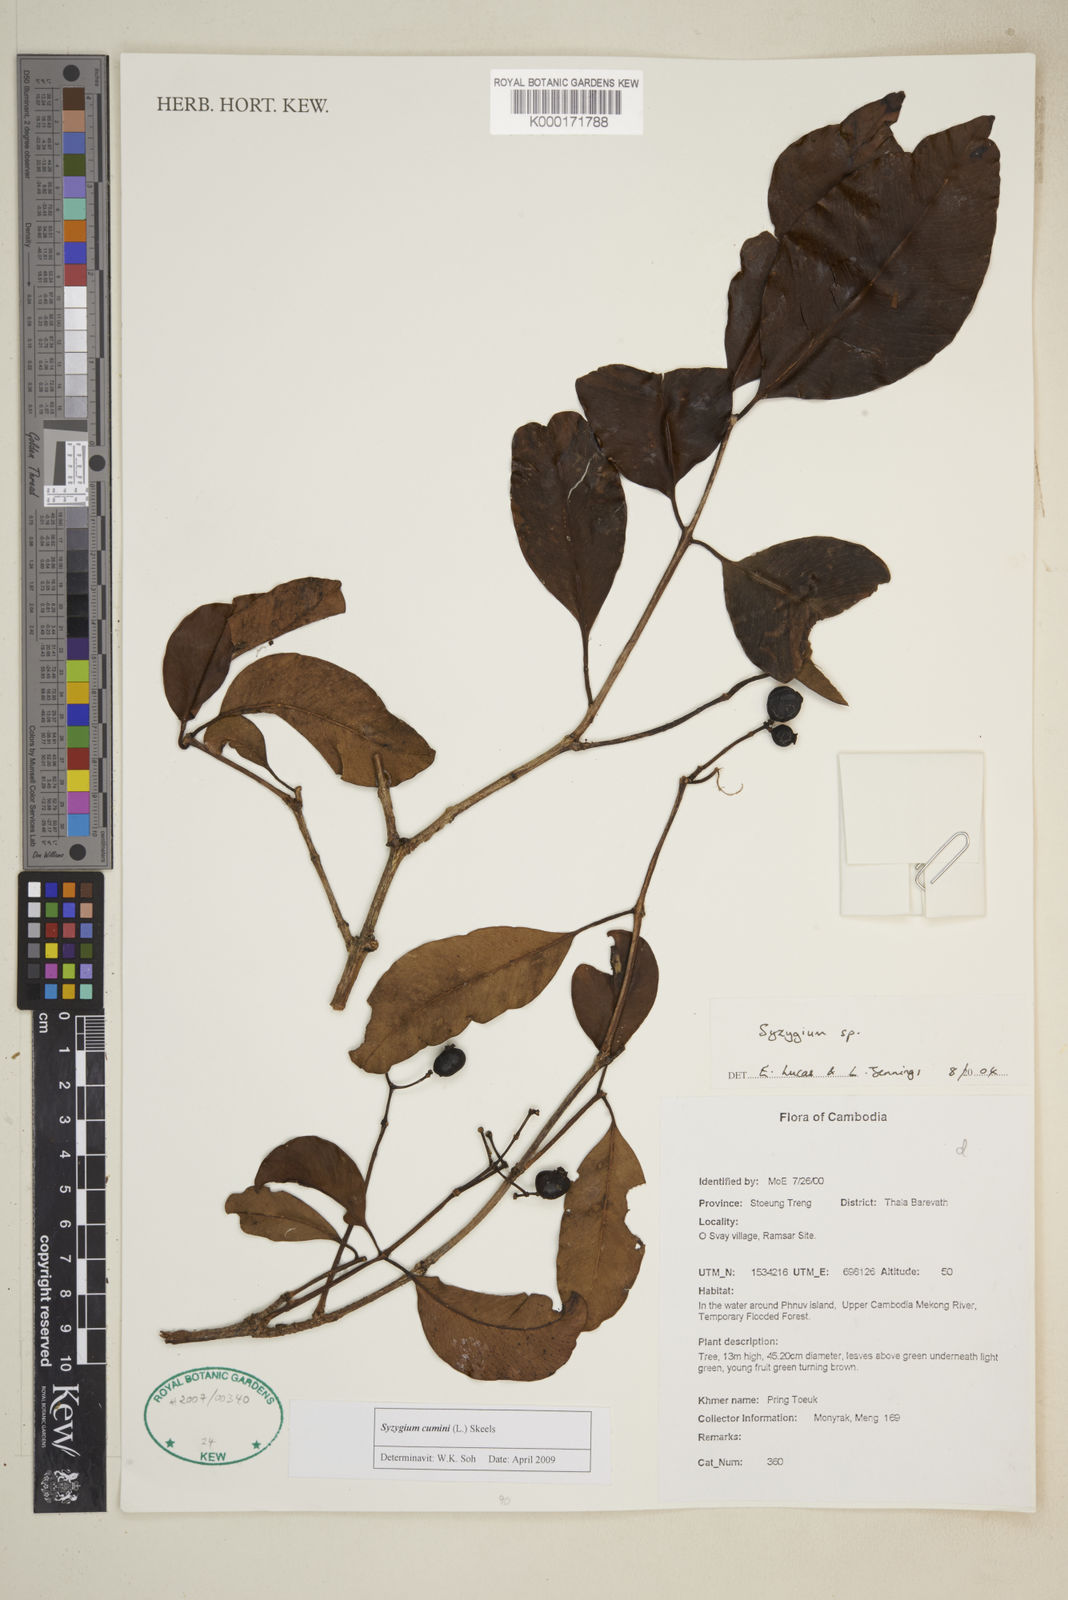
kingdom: Plantae
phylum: Tracheophyta
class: Magnoliopsida
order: Myrtales
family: Myrtaceae
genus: Syzygium
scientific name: Syzygium
